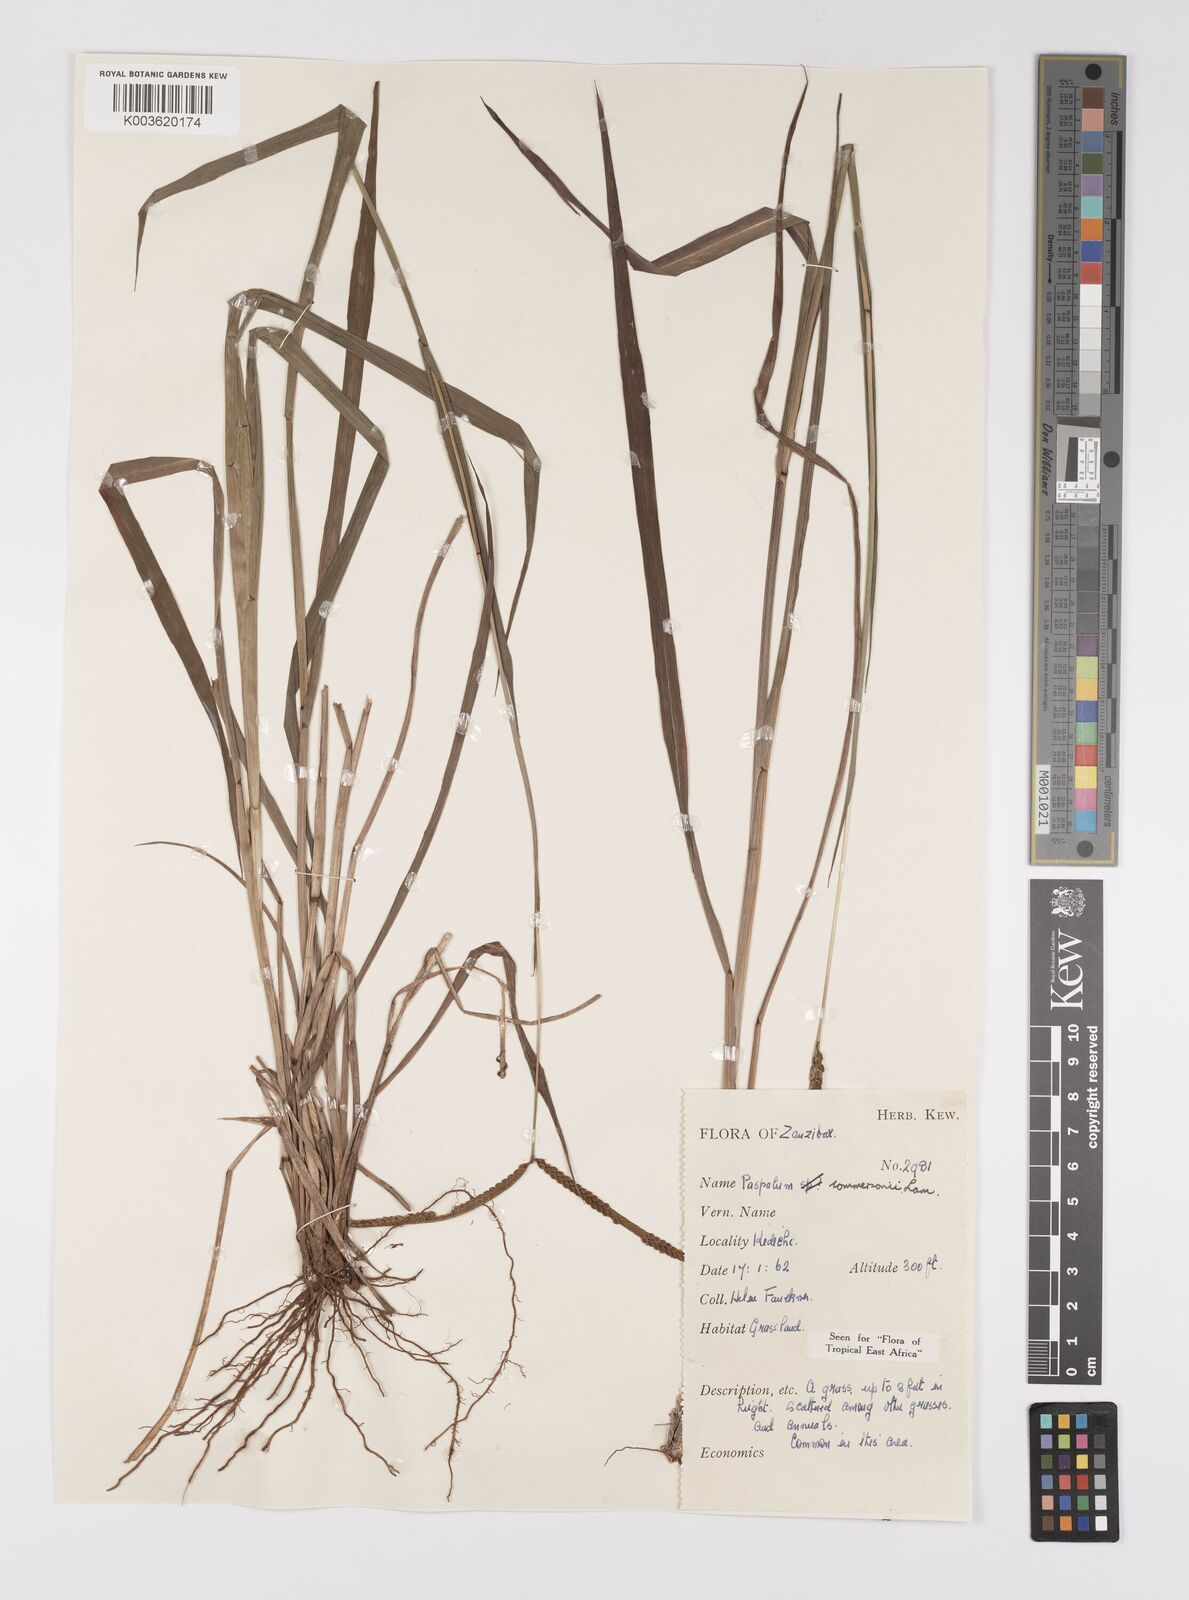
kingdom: Plantae
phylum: Tracheophyta
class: Liliopsida
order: Poales
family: Poaceae
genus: Paspalum
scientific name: Paspalum scrobiculatum
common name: Kodo millet
